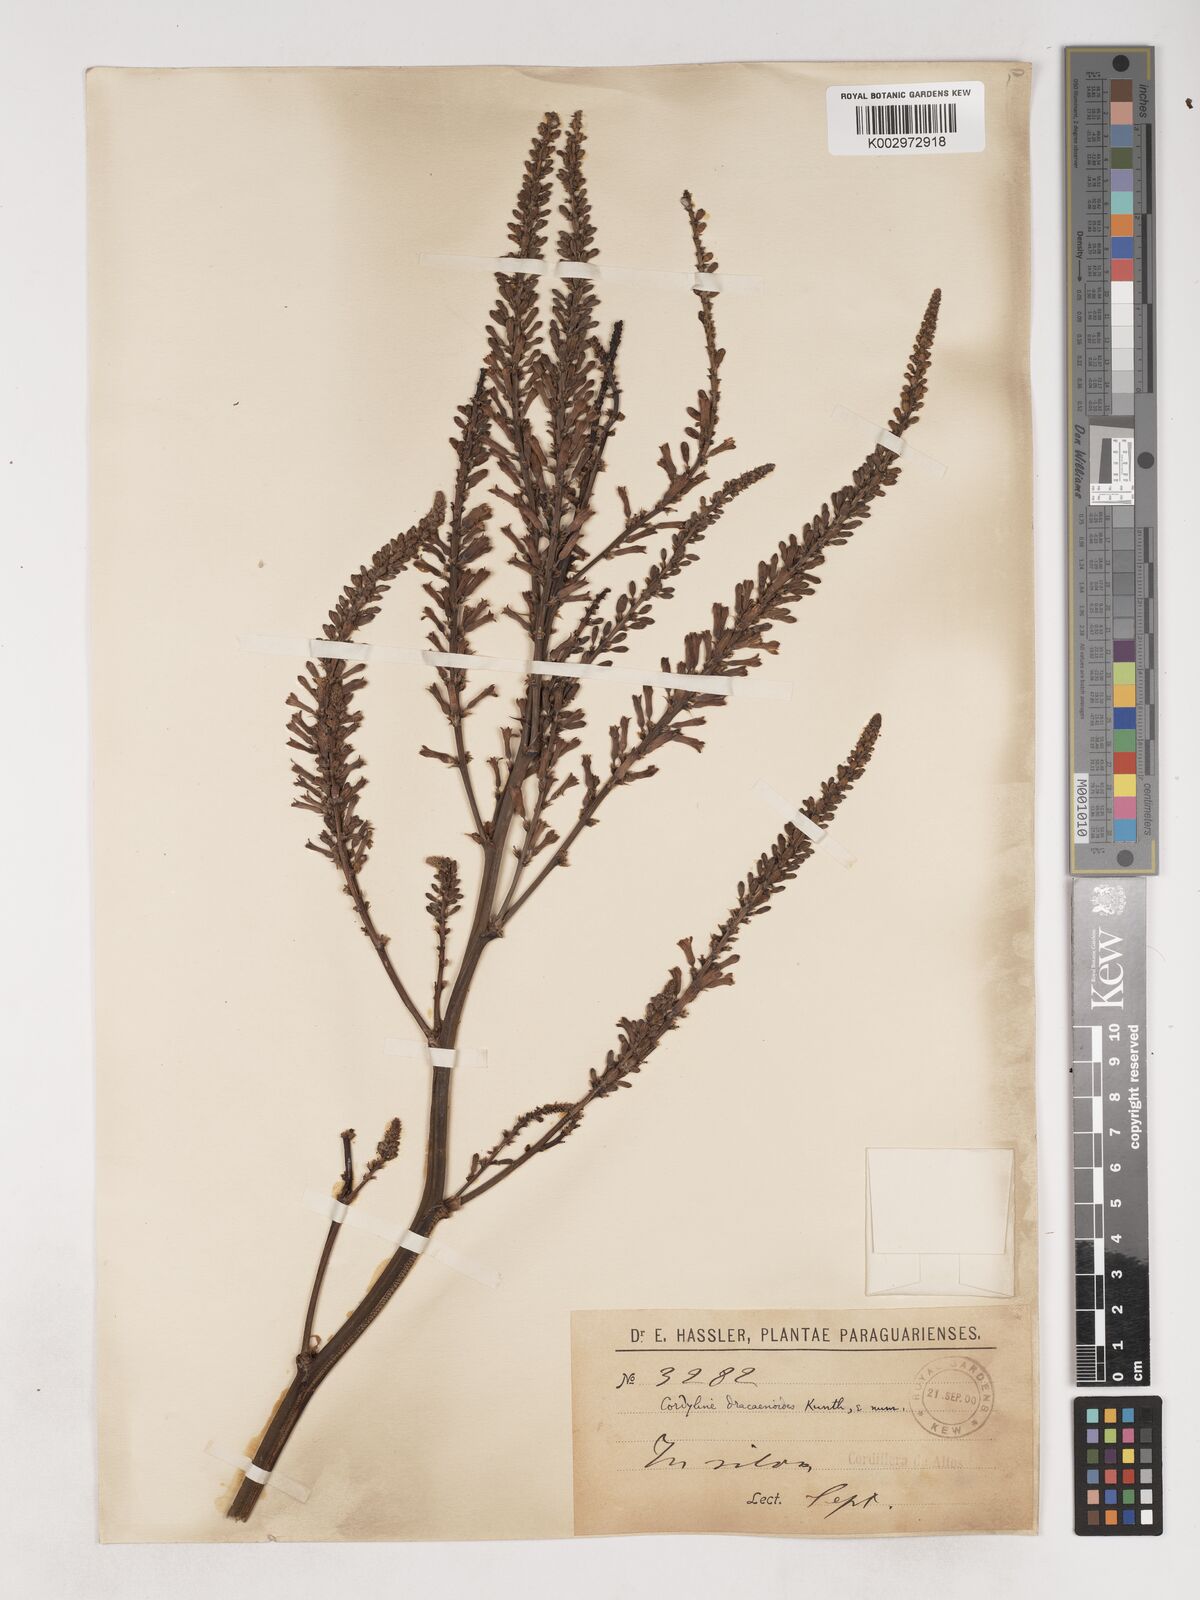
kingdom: Plantae
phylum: Tracheophyta
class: Liliopsida
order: Asparagales
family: Asparagaceae
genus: Cordyline
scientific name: Cordyline congesta
